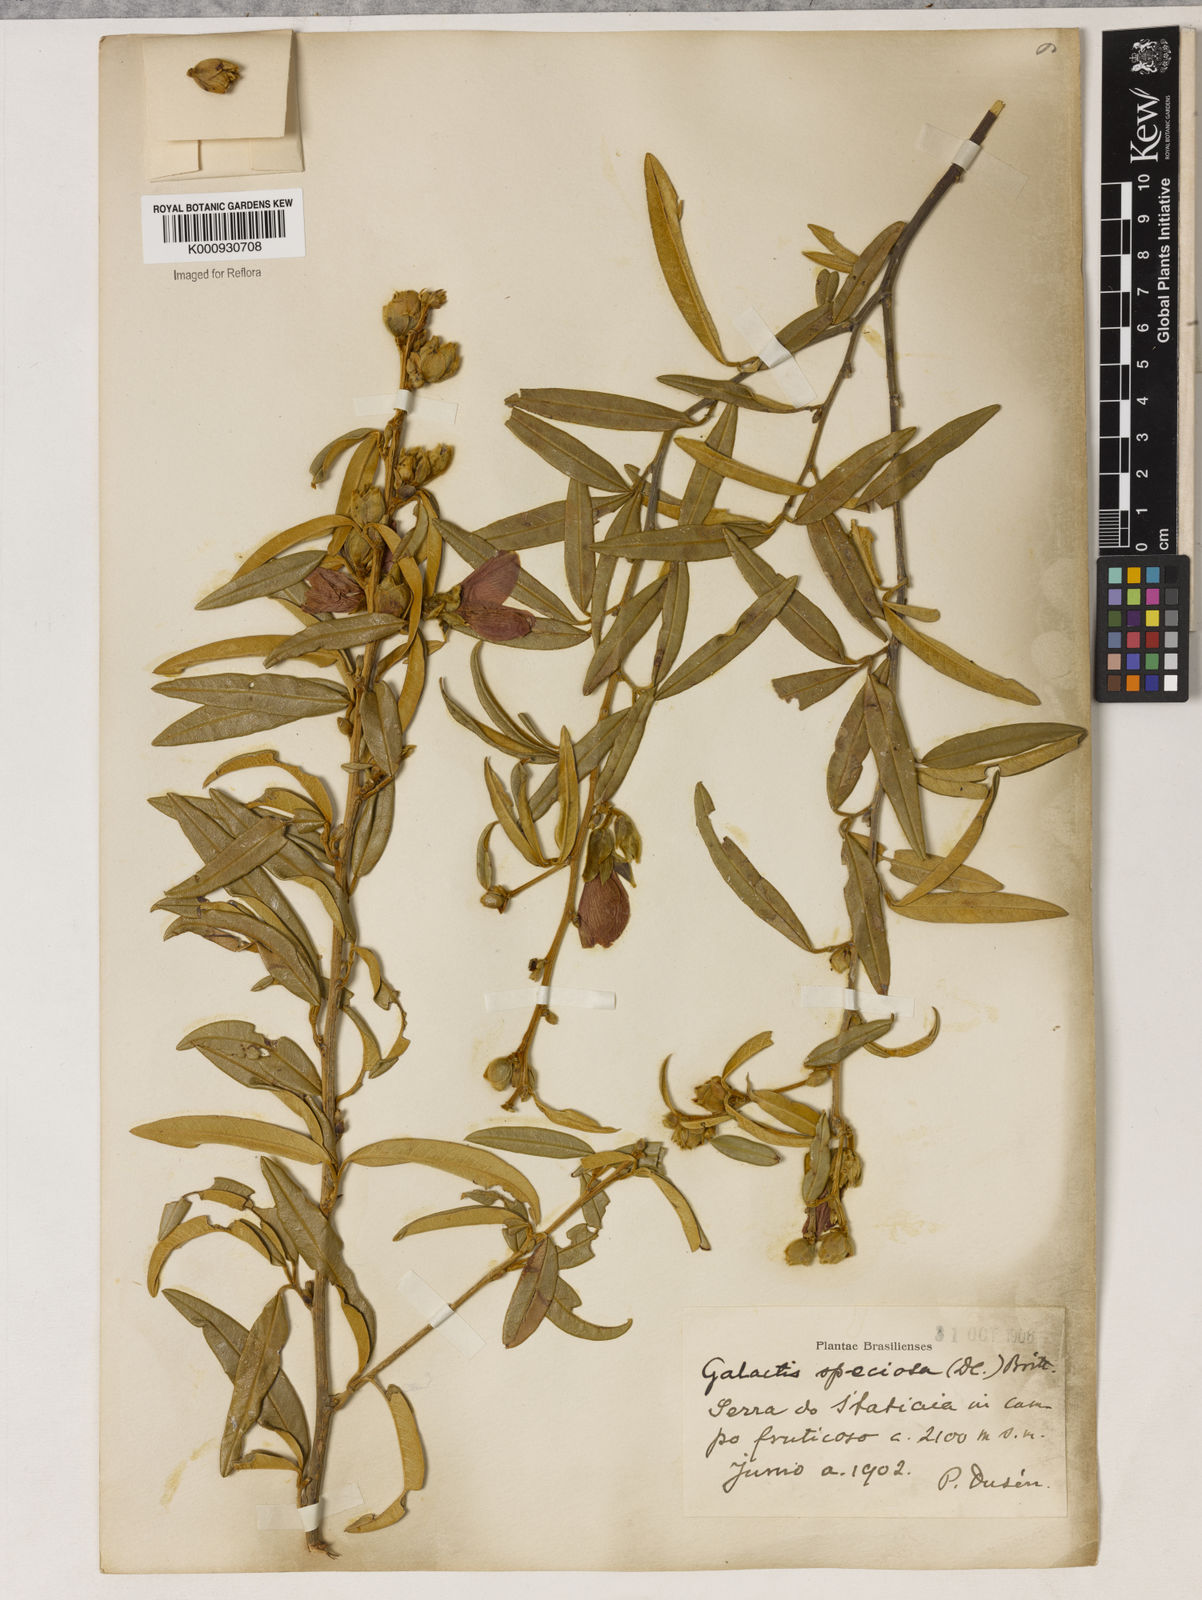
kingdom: Plantae
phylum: Tracheophyta
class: Magnoliopsida
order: Lamiales
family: Lamiaceae
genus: Coleus
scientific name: Coleus barbatus
